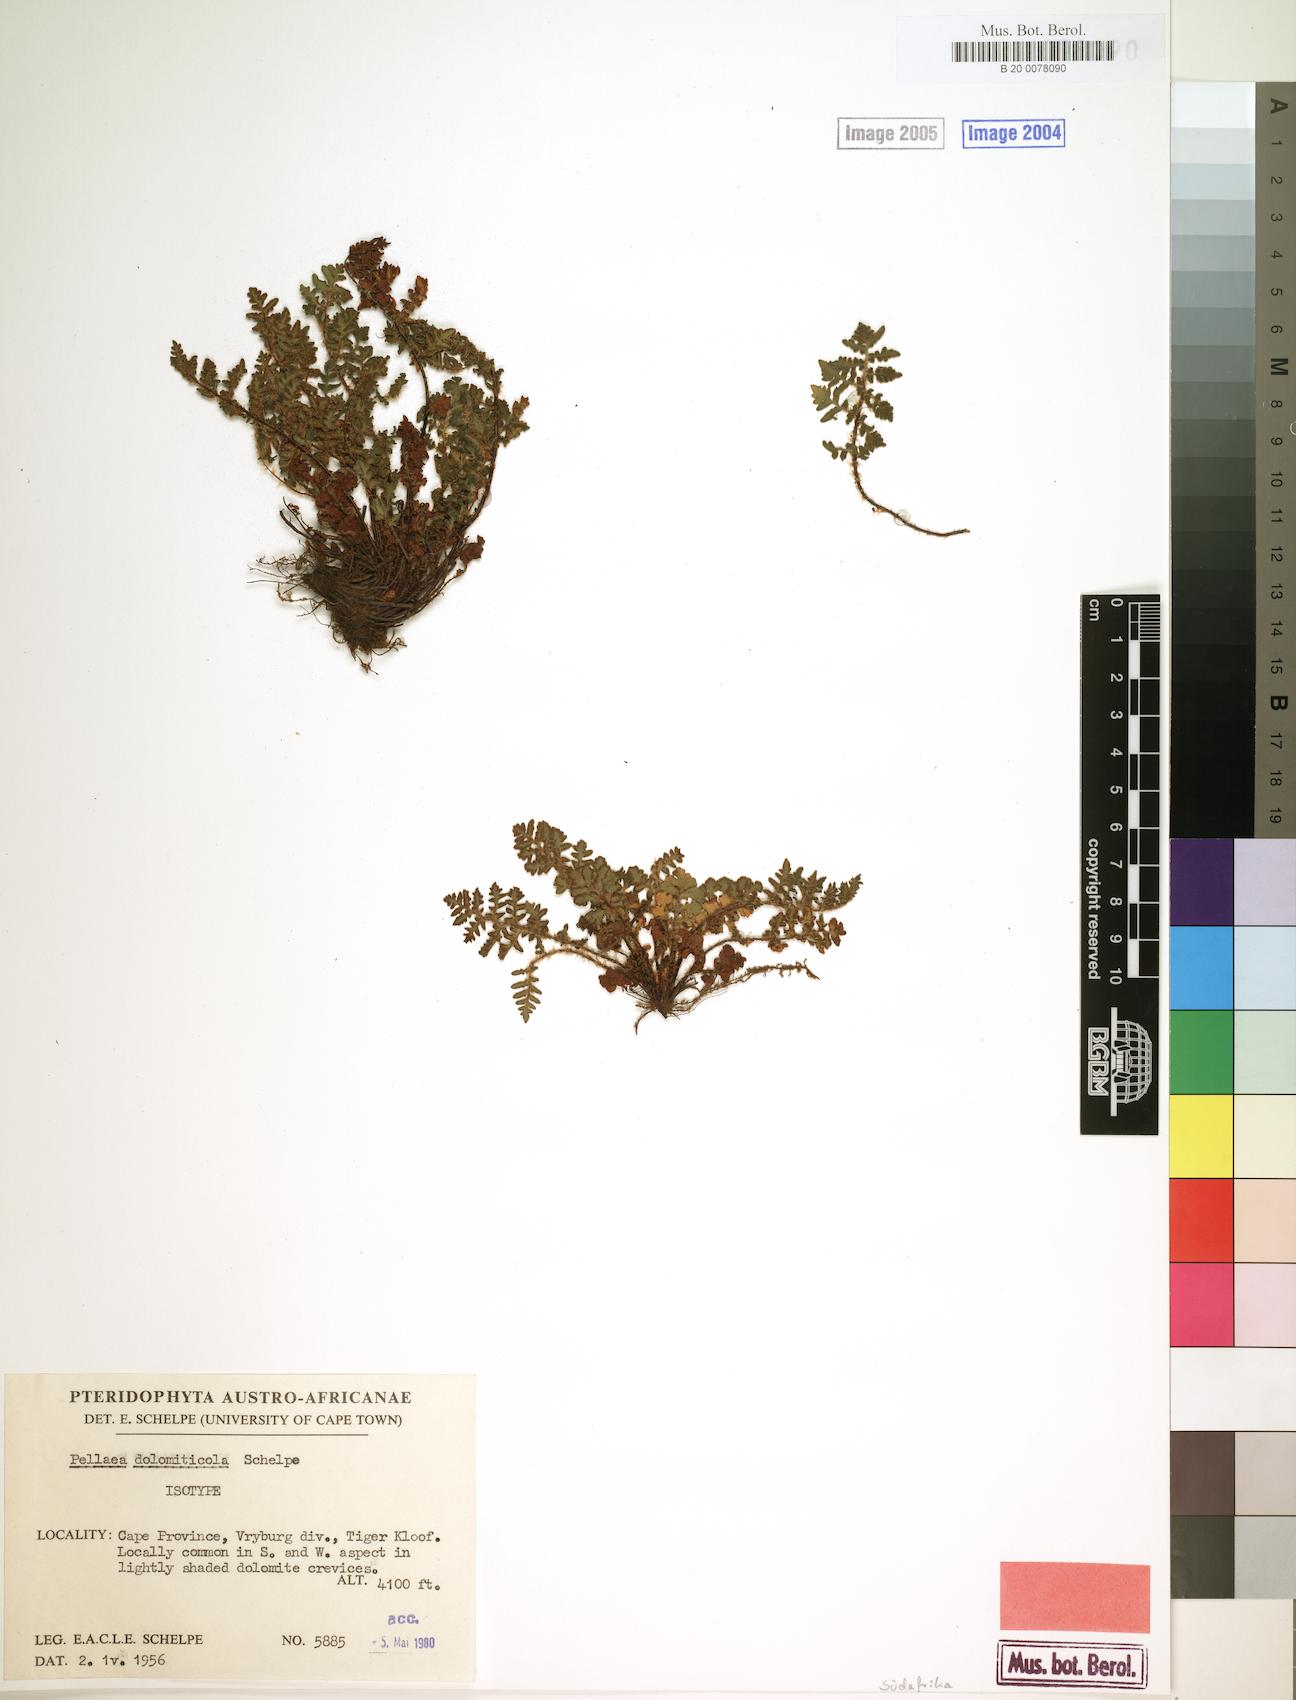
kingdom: Plantae
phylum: Tracheophyta
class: Polypodiopsida
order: Polypodiales
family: Pteridaceae
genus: Cheilanthes
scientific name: Cheilanthes dolomiticola
